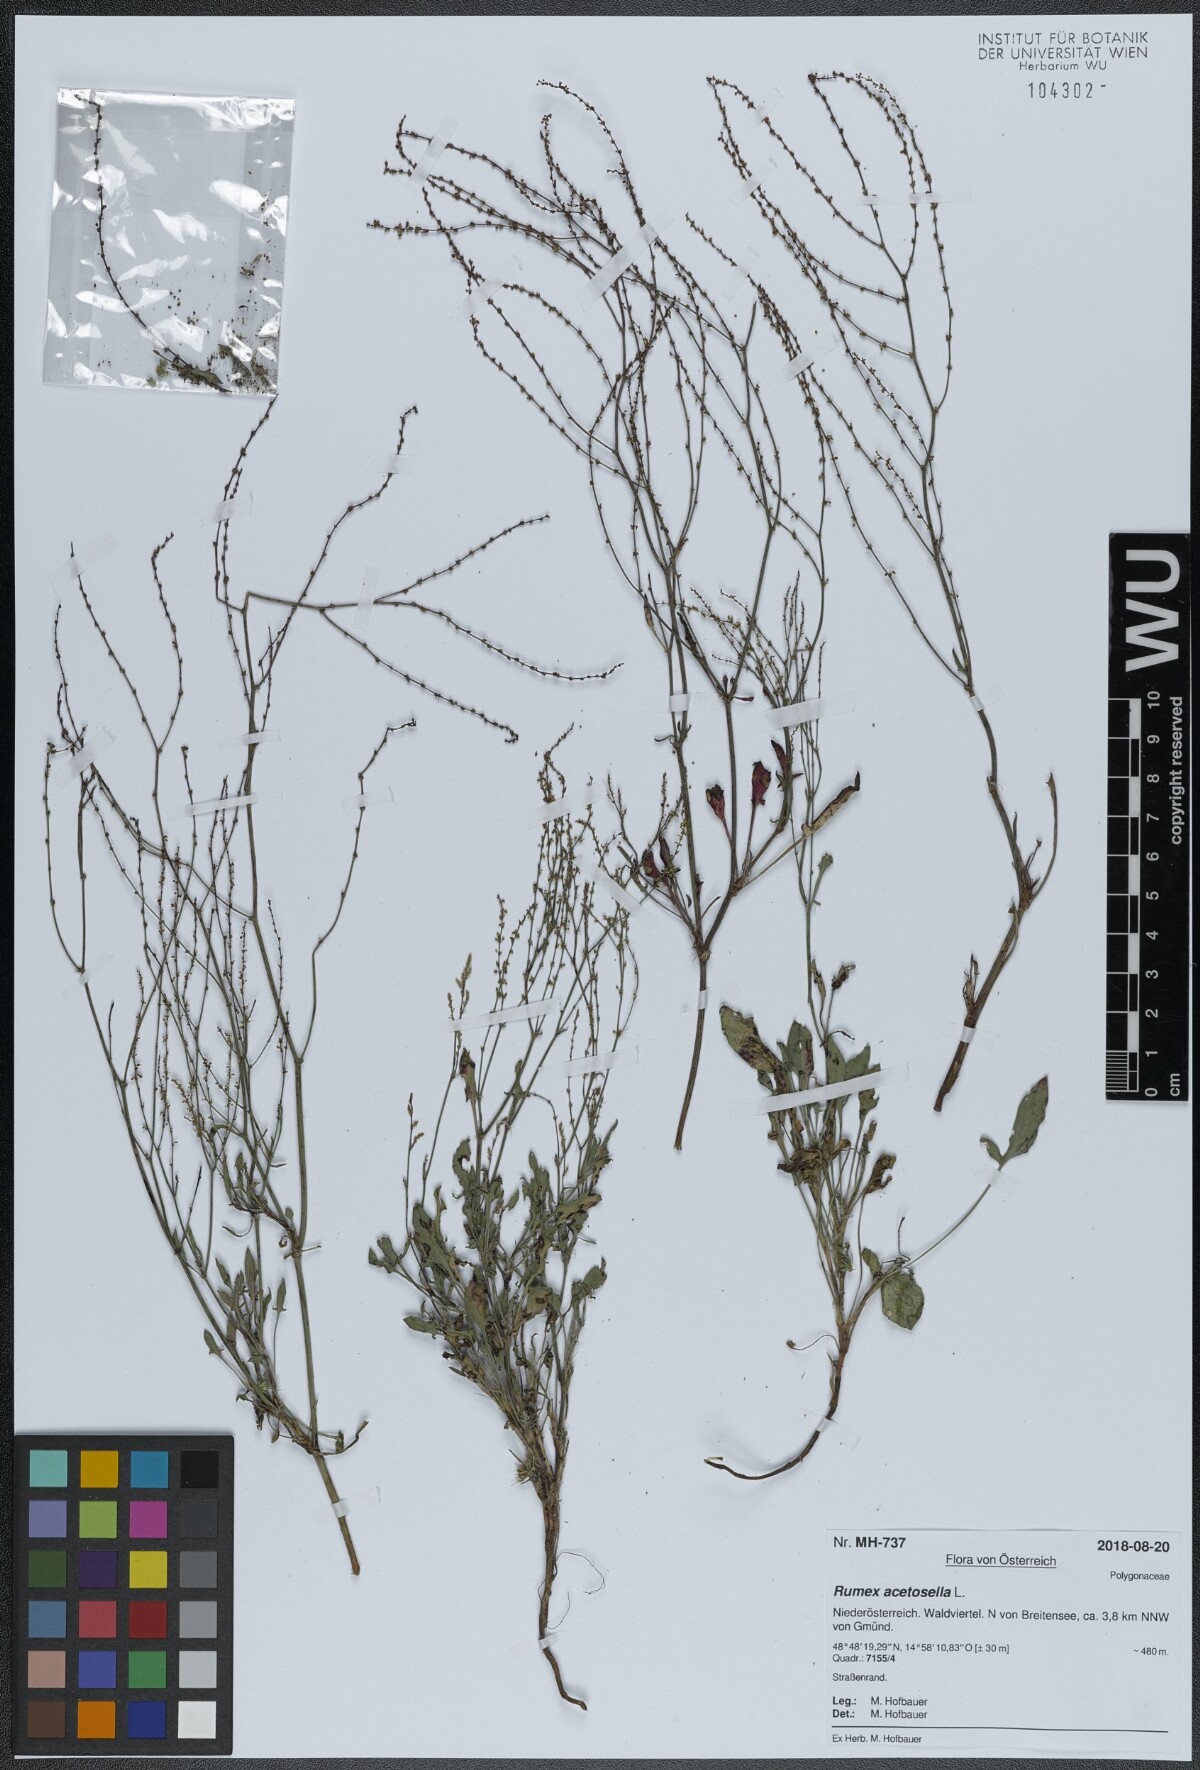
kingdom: Plantae
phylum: Tracheophyta
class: Magnoliopsida
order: Caryophyllales
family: Polygonaceae
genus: Rumex
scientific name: Rumex acetosella
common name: Common sheep sorrel
